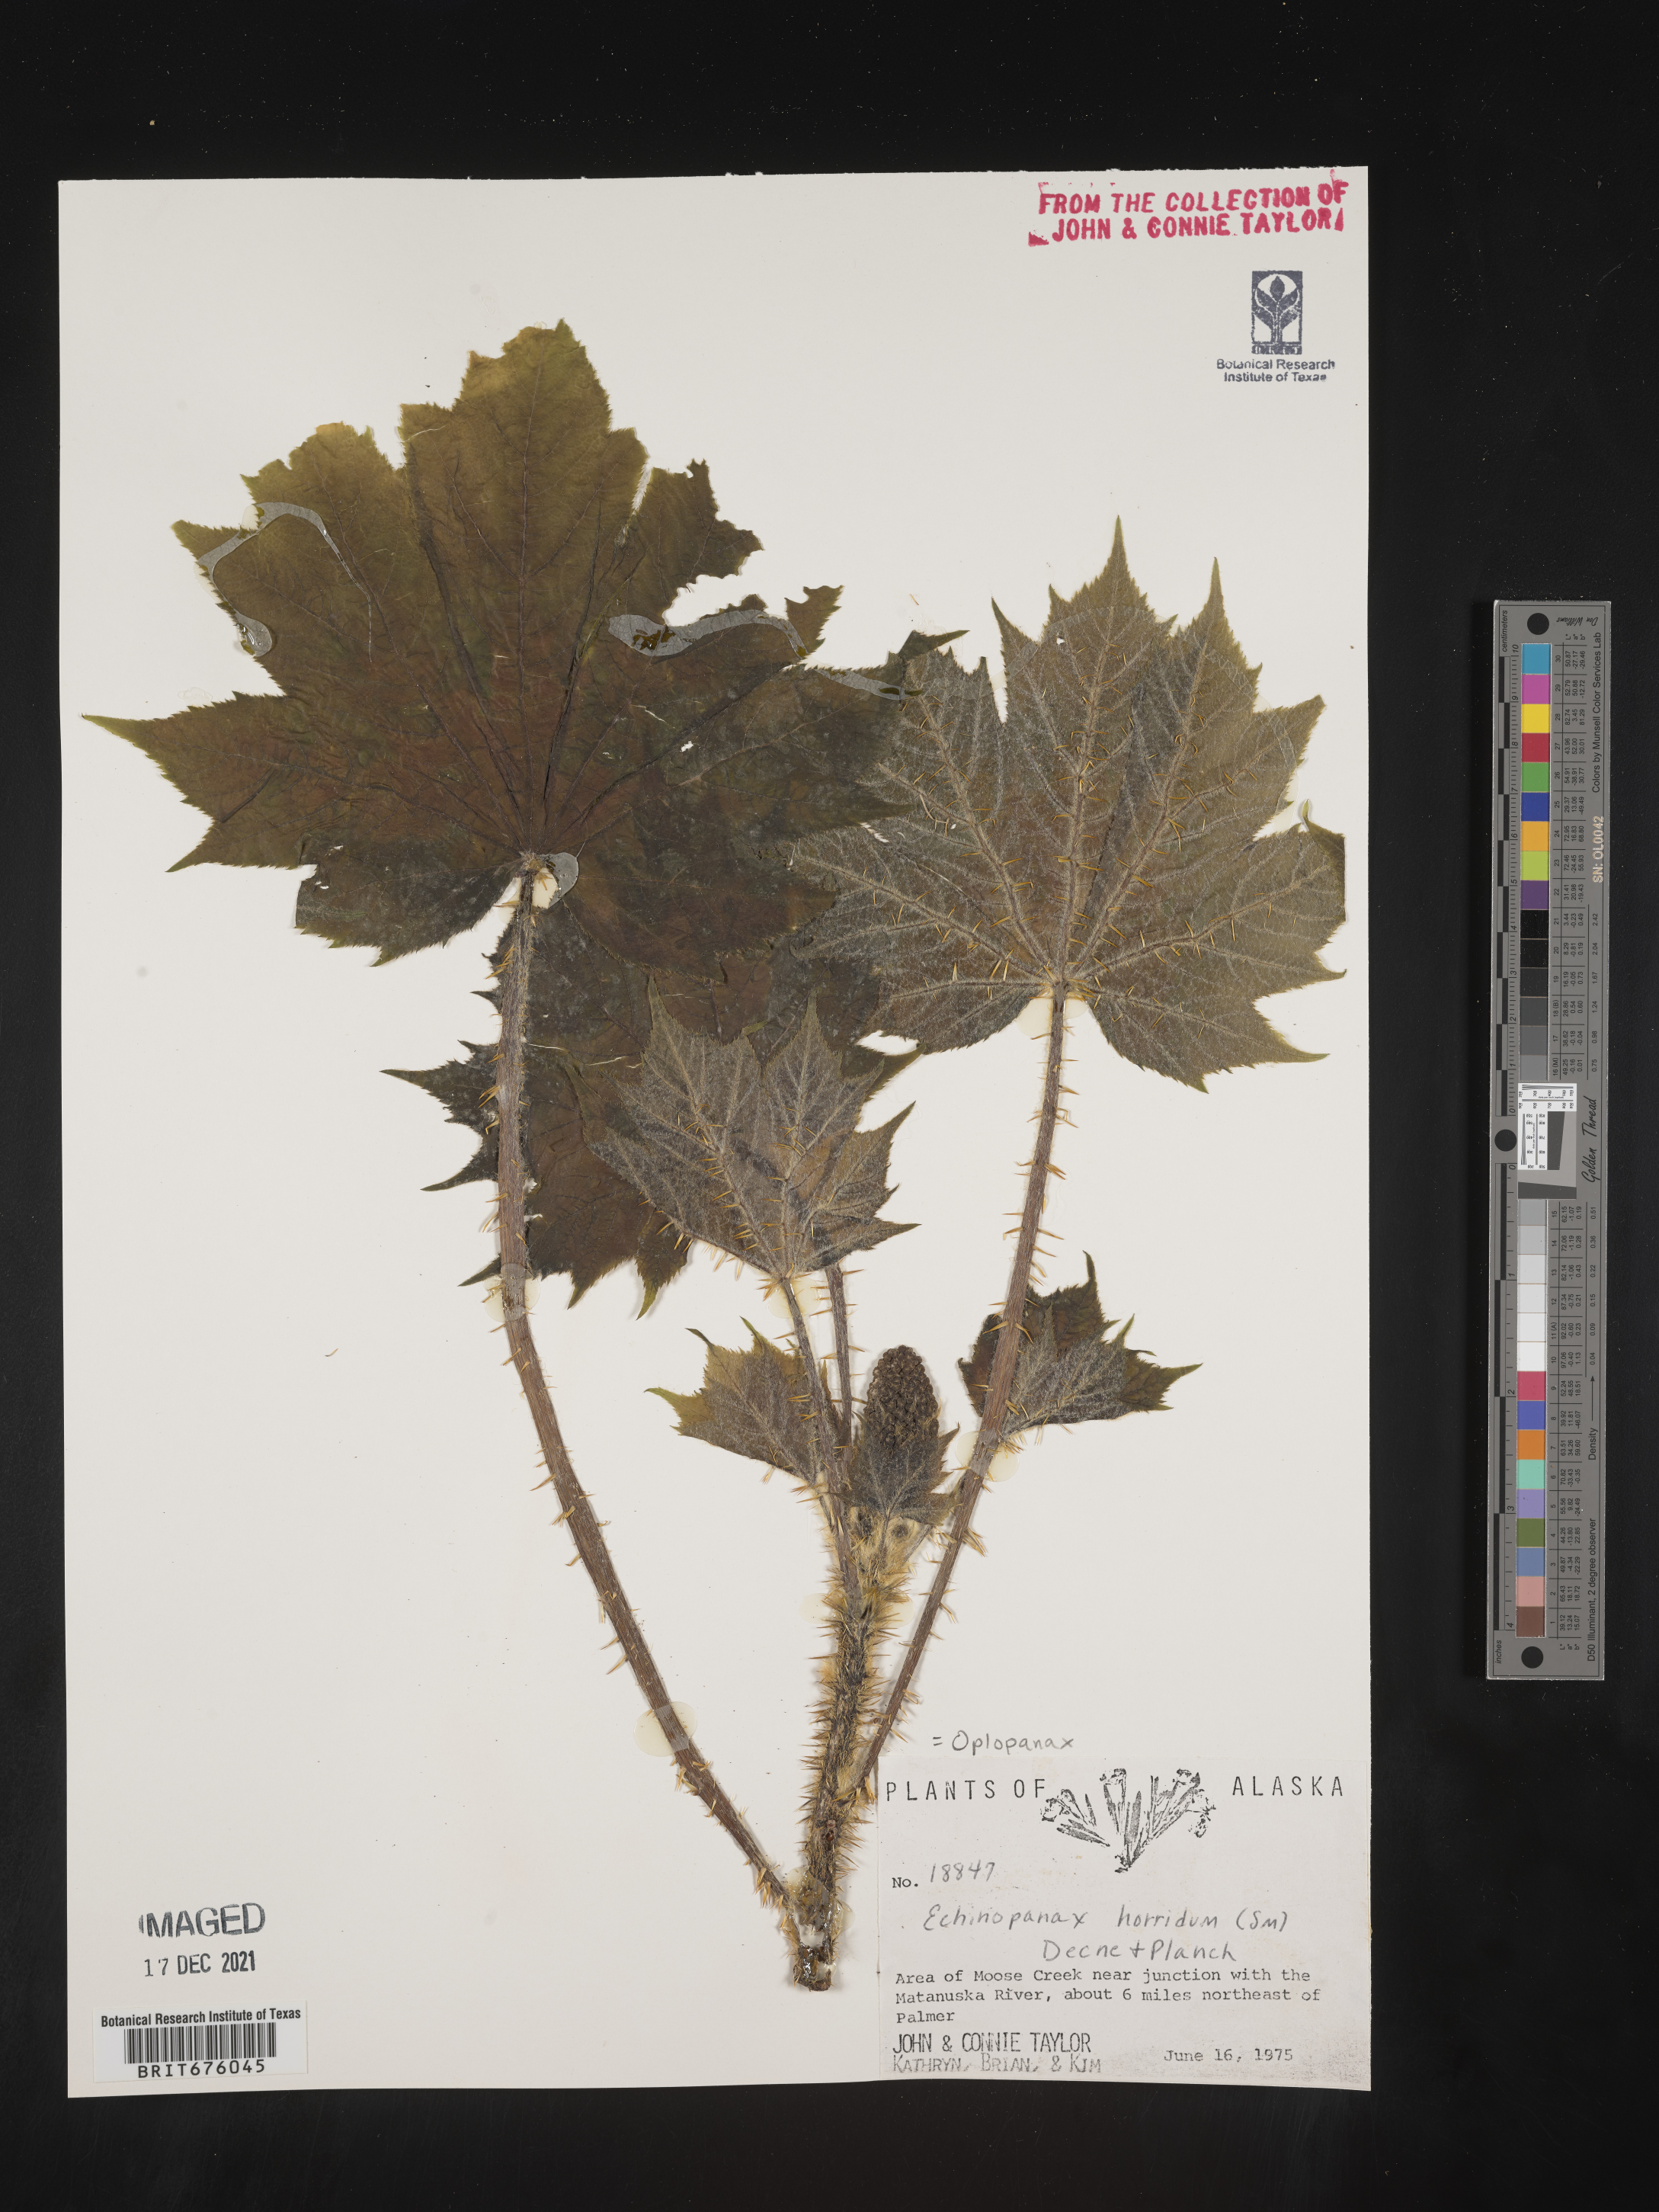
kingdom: Plantae
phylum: Tracheophyta
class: Magnoliopsida
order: Apiales
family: Araliaceae
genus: Oplopanax
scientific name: Oplopanax
